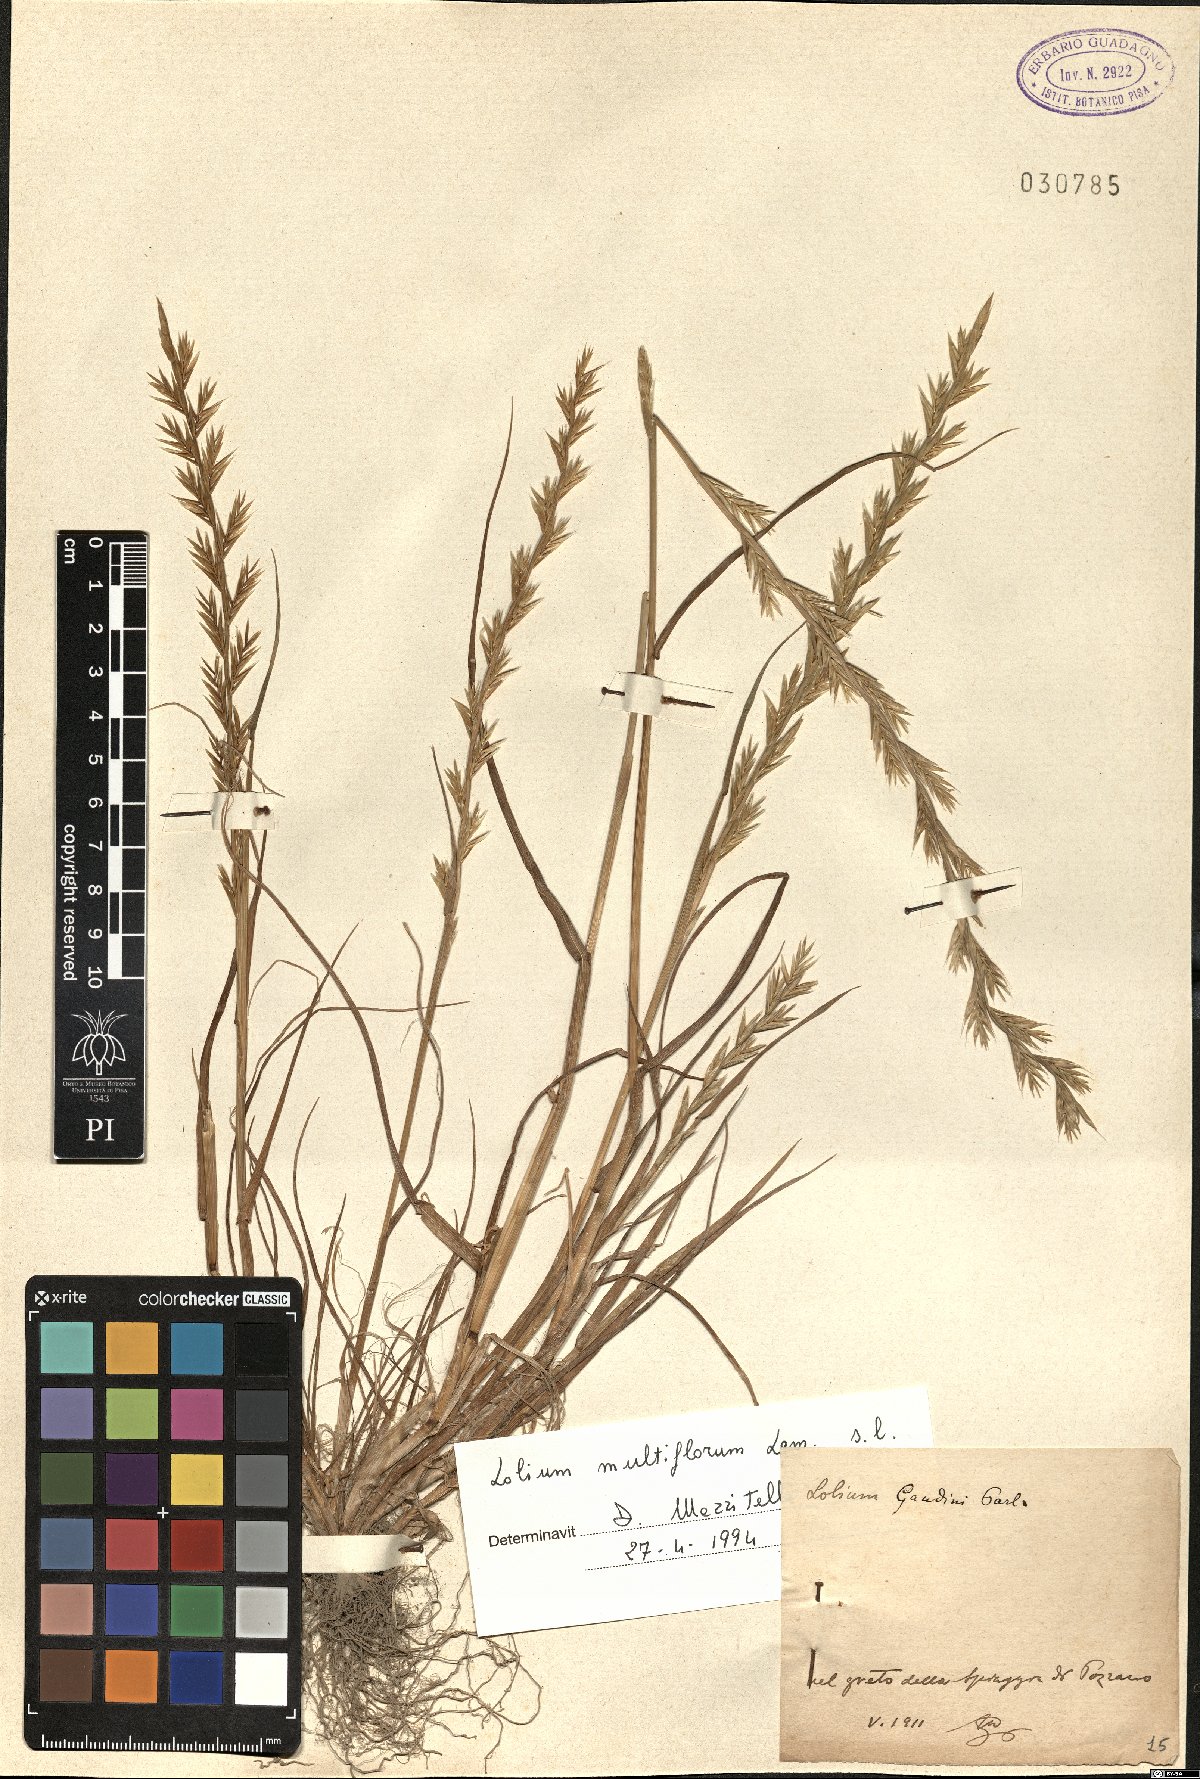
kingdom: Plantae
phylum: Tracheophyta
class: Liliopsida
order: Poales
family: Poaceae
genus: Lolium
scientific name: Lolium multiflorum
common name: Annual ryegrass
